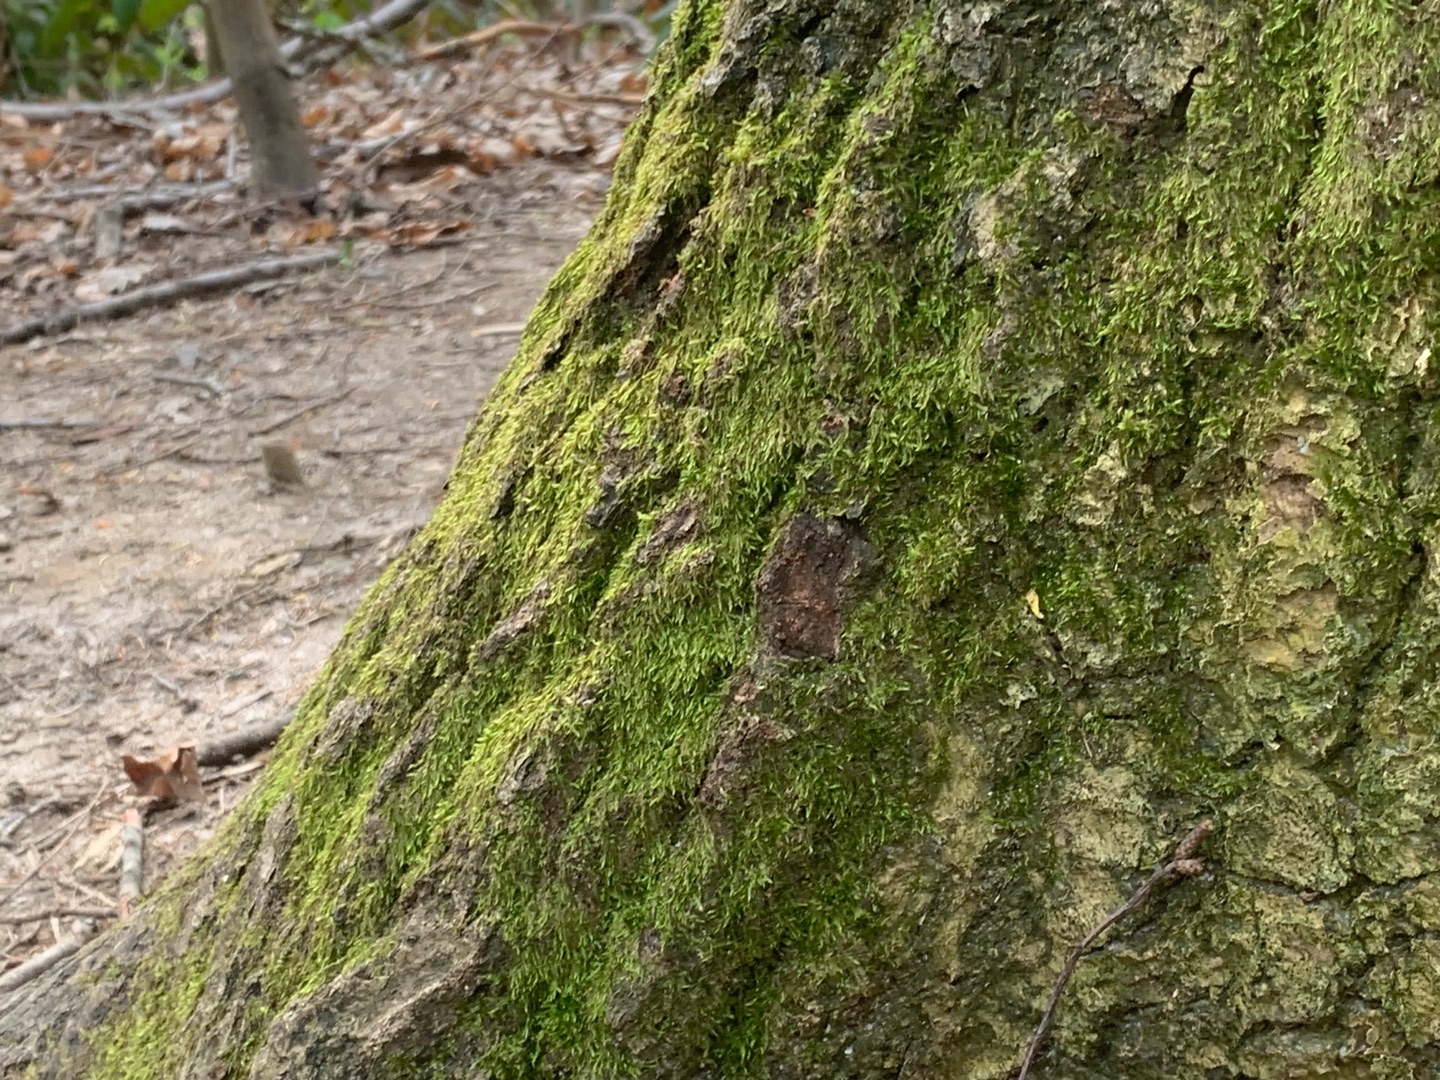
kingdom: Plantae
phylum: Bryophyta
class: Bryopsida
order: Hypnales
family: Hypnaceae
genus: Hypnum
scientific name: Hypnum
